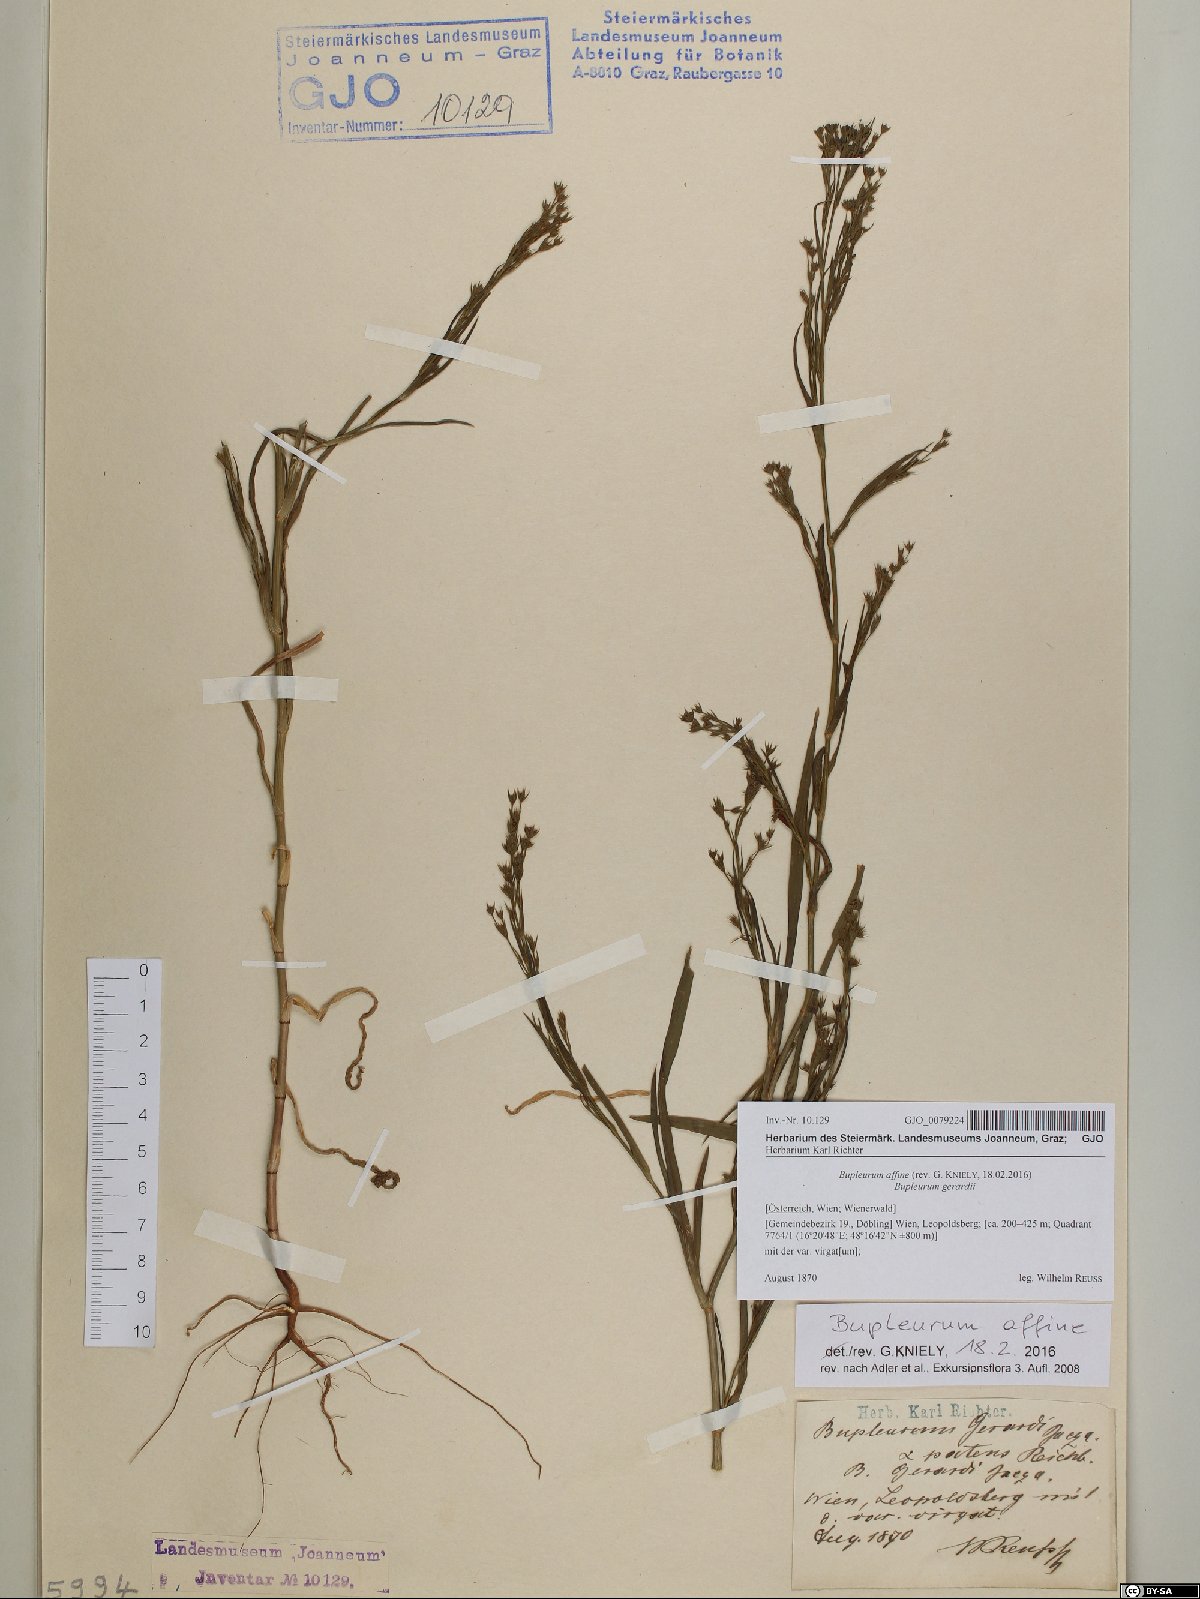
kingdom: Plantae
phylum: Tracheophyta
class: Magnoliopsida
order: Apiales
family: Apiaceae
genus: Bupleurum
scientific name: Bupleurum affine
